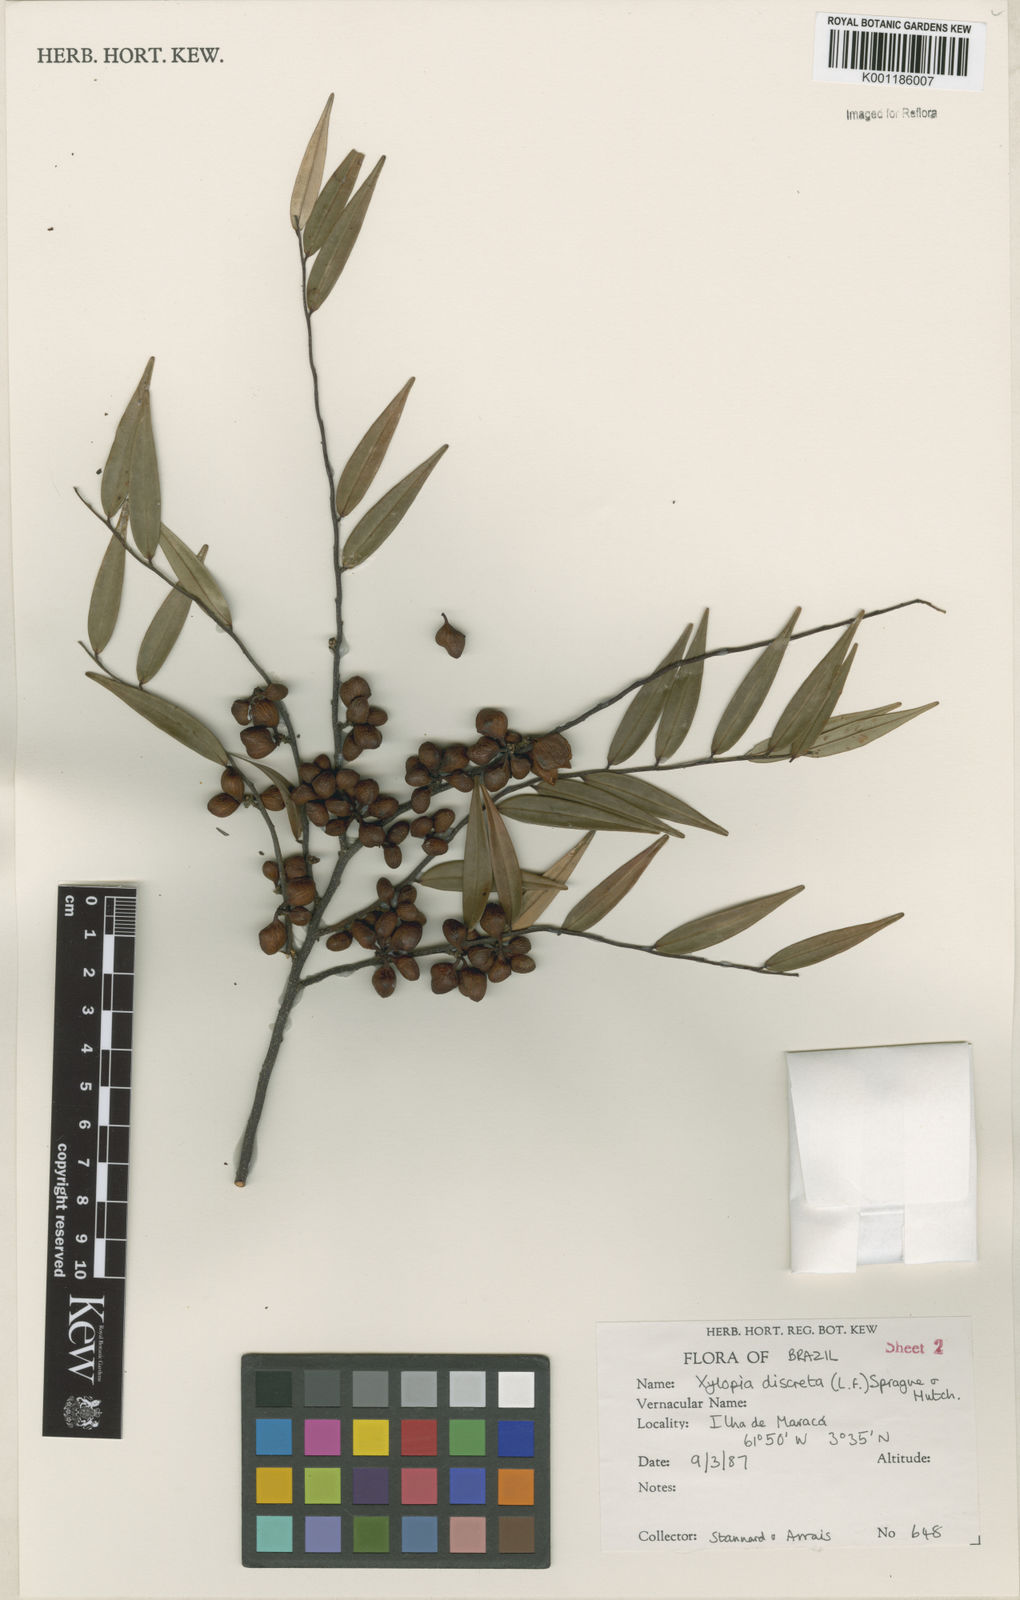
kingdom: Plantae
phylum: Tracheophyta
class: Magnoliopsida
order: Magnoliales
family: Annonaceae
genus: Xylopia
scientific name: Xylopia discreta
